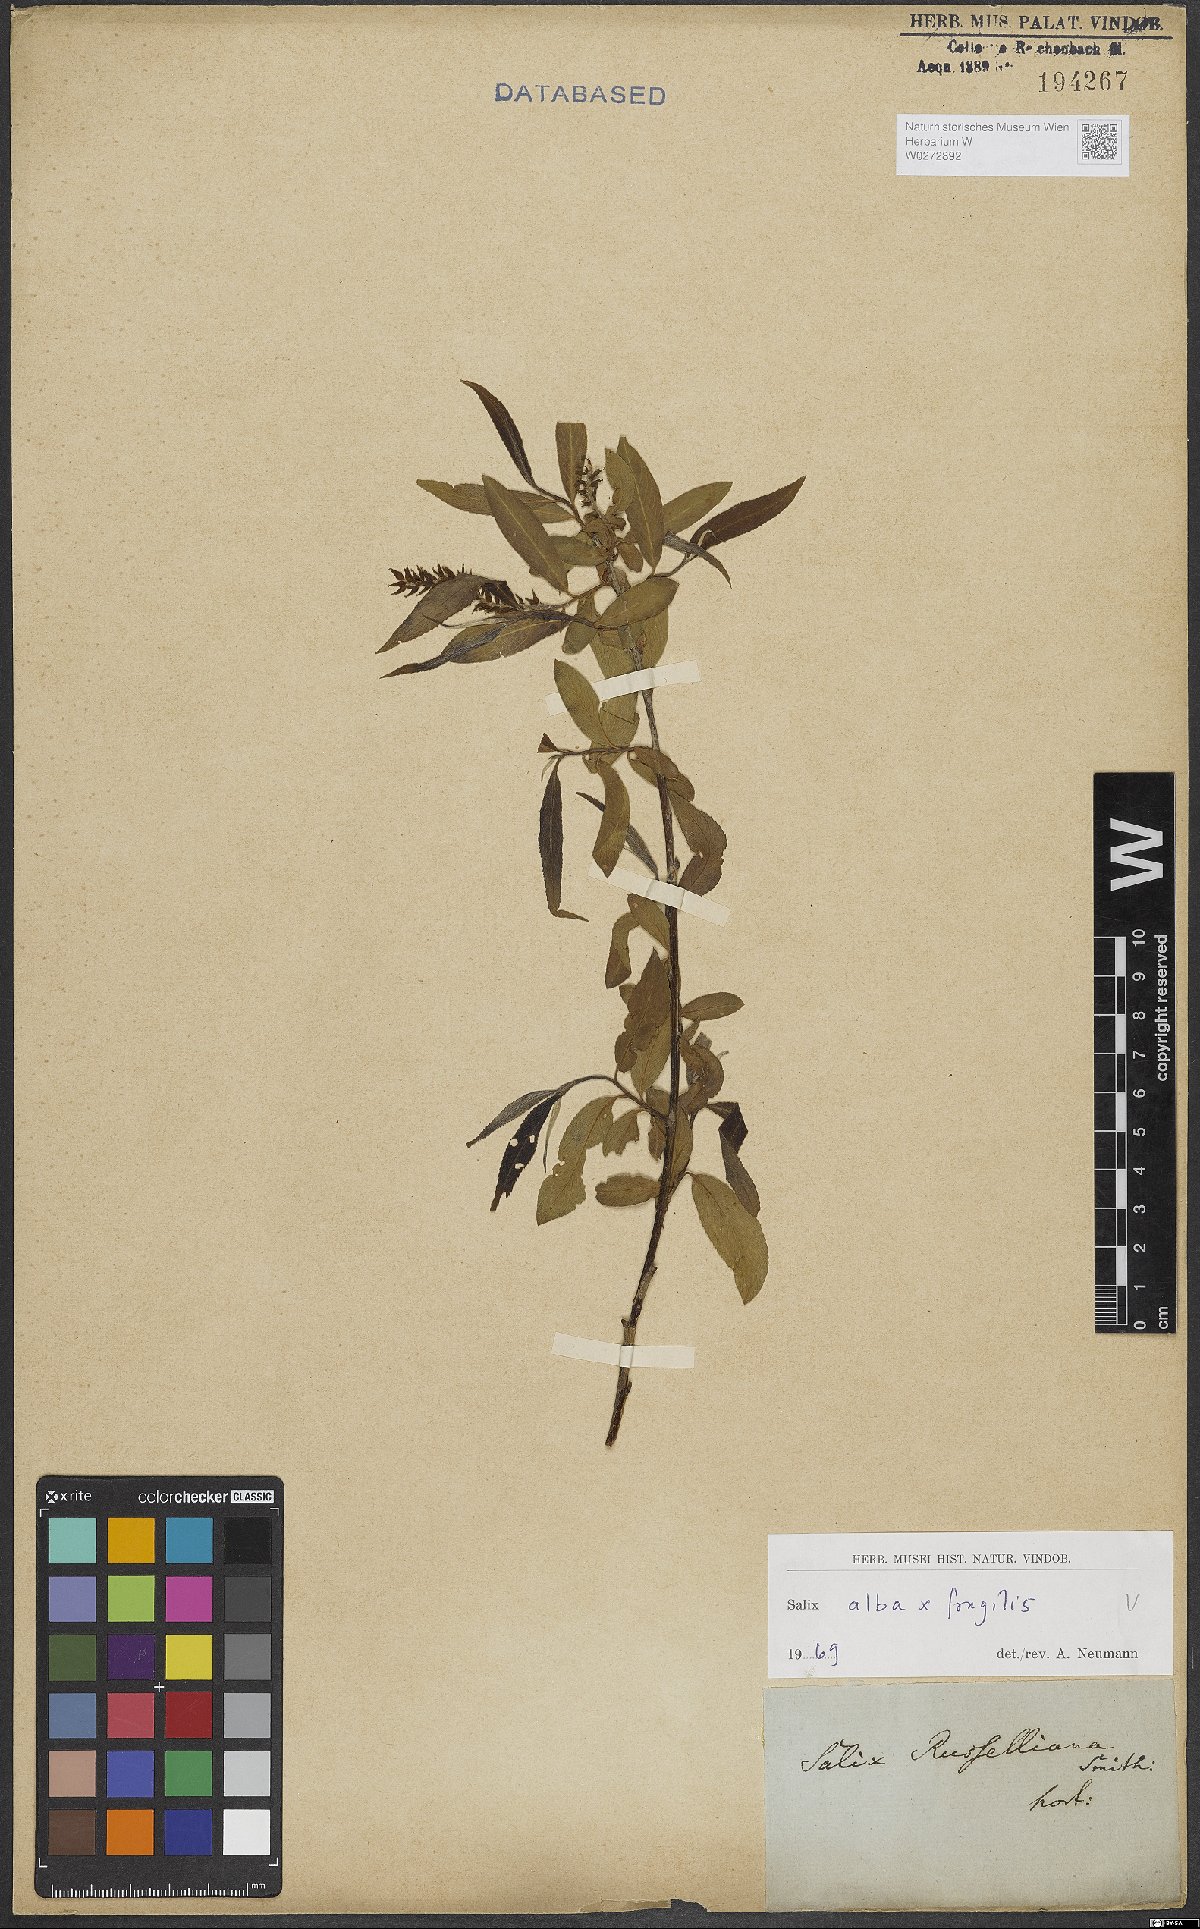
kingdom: Plantae
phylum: Tracheophyta
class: Magnoliopsida
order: Malpighiales
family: Salicaceae
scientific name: Salicaceae
